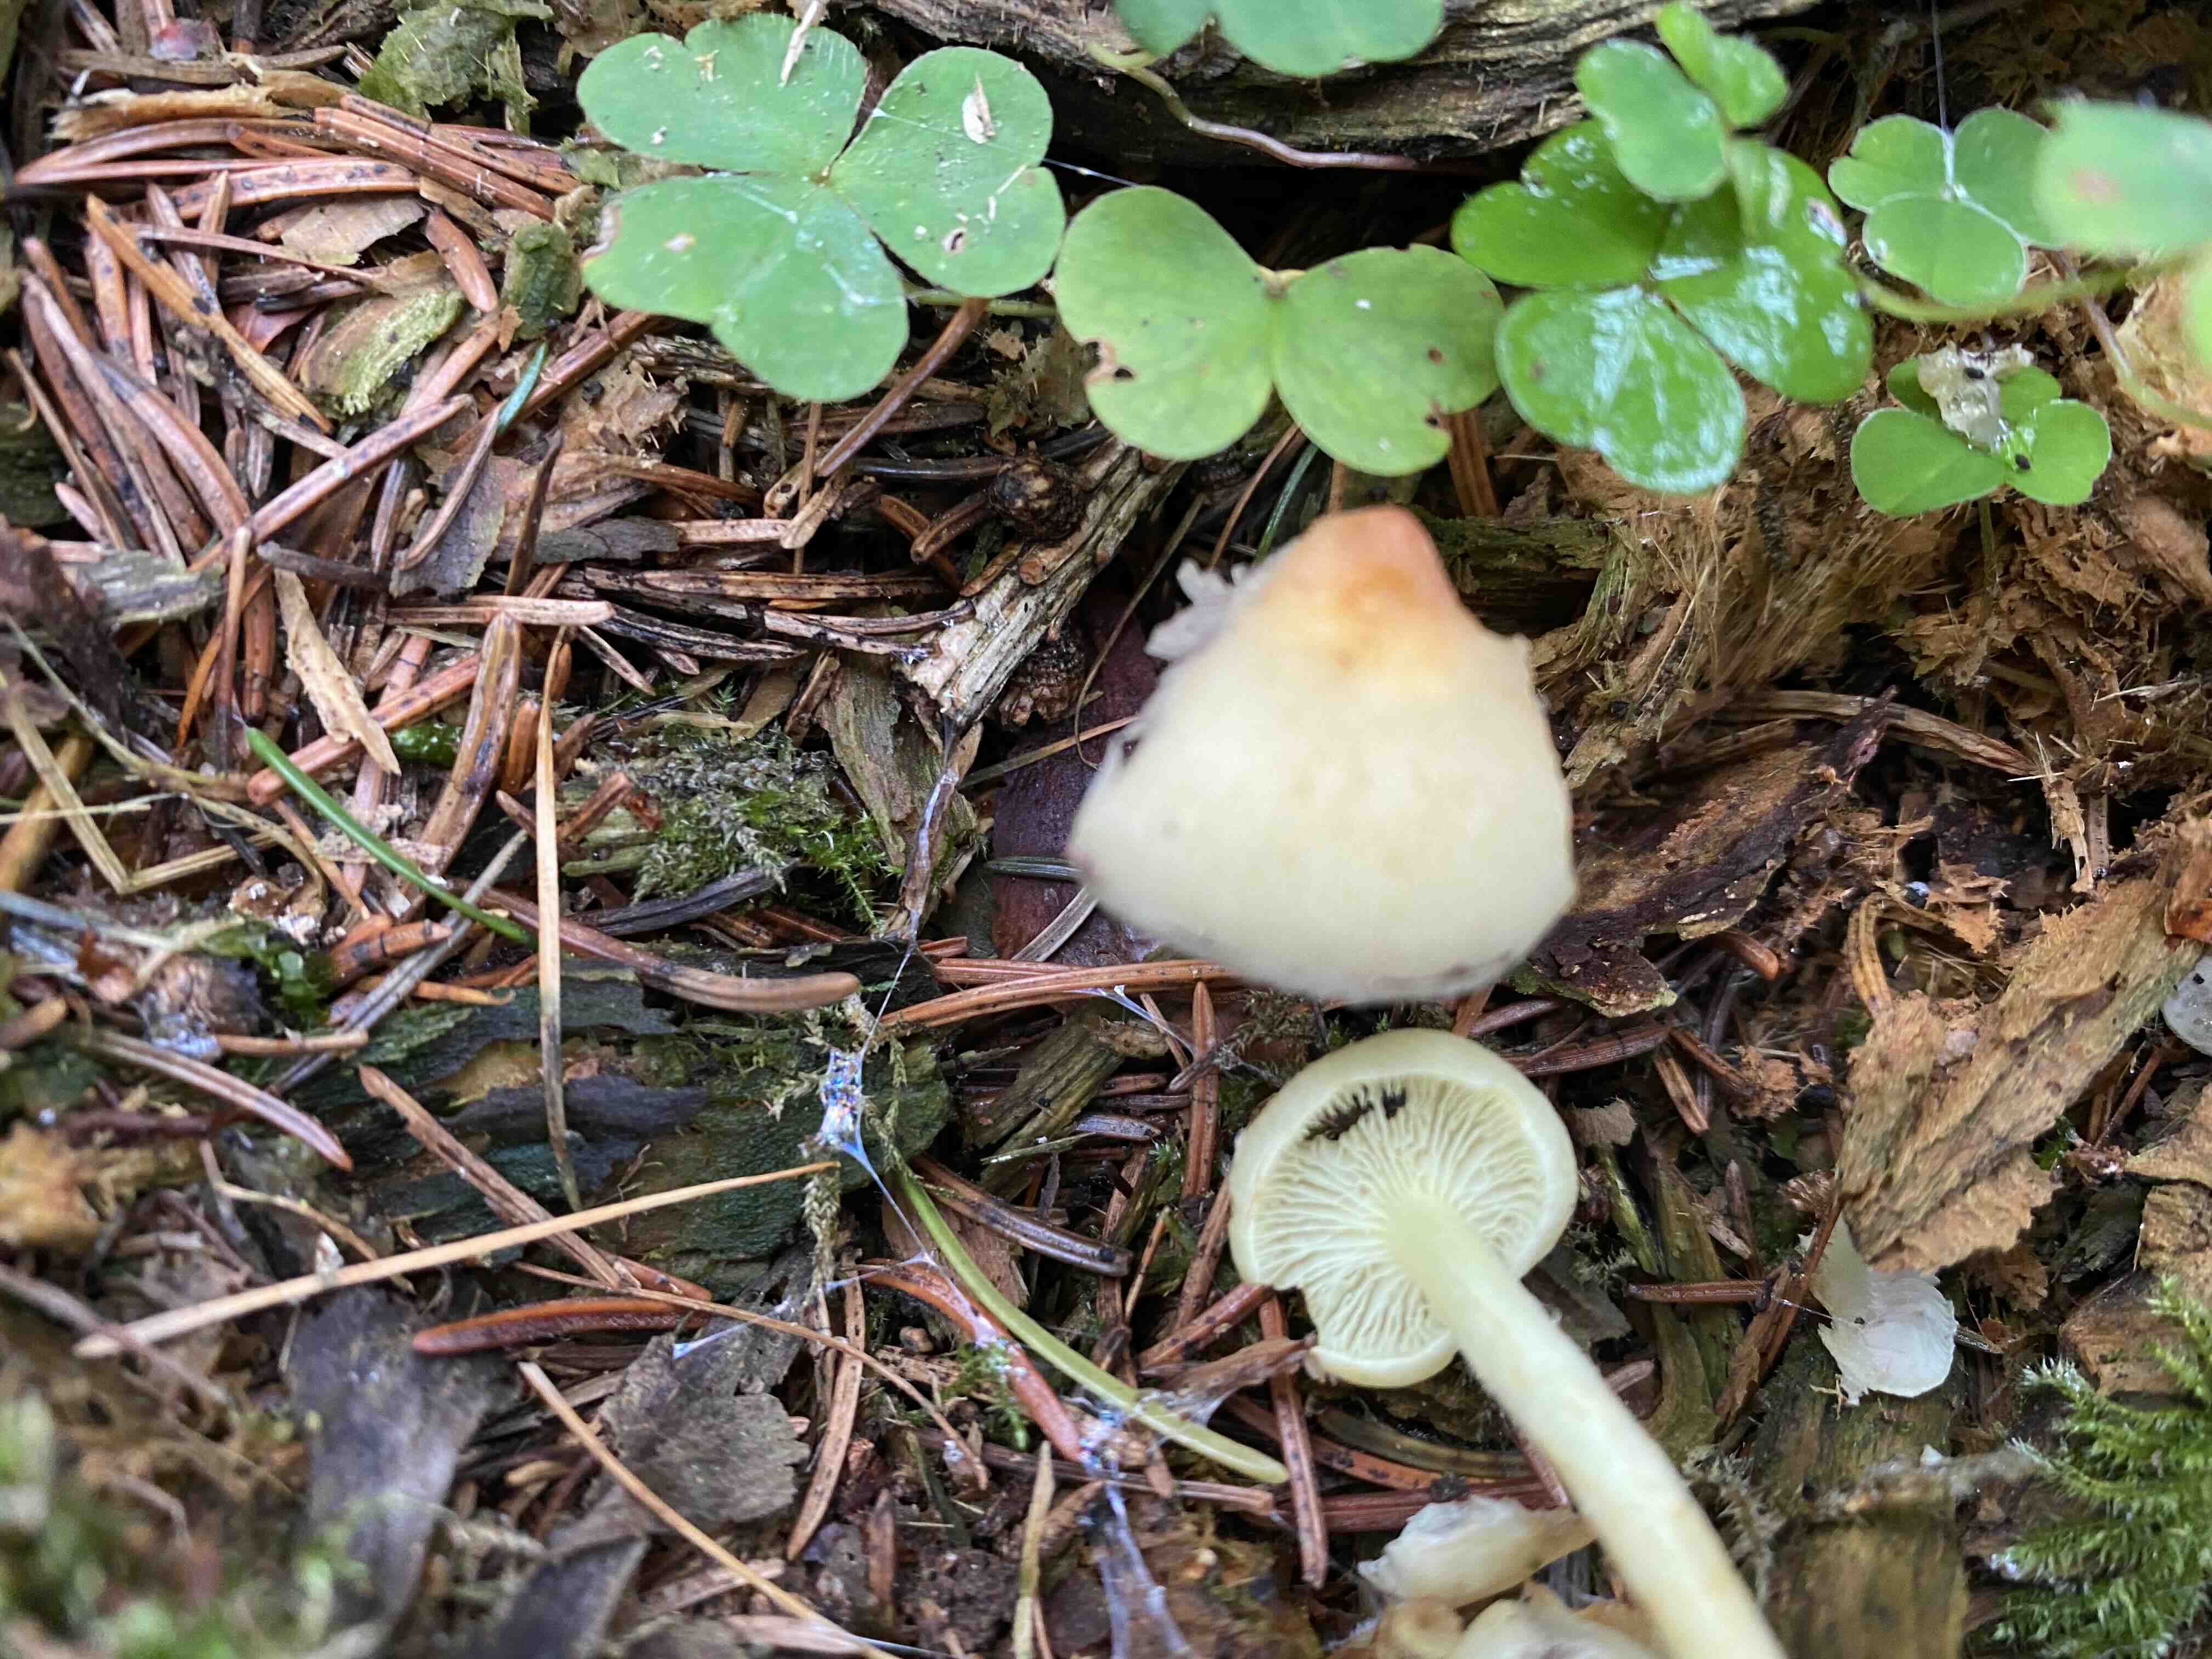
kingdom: Fungi
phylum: Basidiomycota
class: Agaricomycetes
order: Agaricales
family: Strophariaceae
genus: Hypholoma
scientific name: Hypholoma fasciculare
